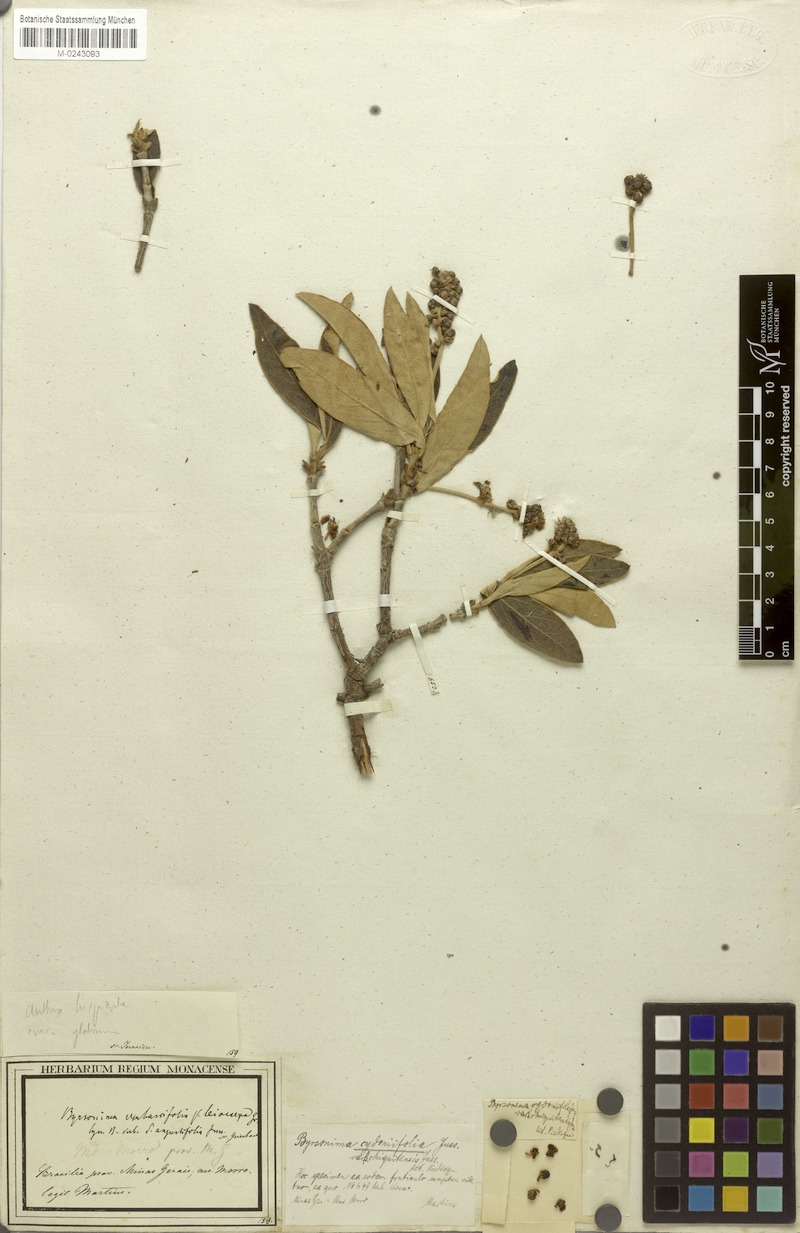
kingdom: Plantae
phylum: Tracheophyta
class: Magnoliopsida
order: Malpighiales
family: Malpighiaceae
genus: Byrsonima
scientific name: Byrsonima cydoniifolia
